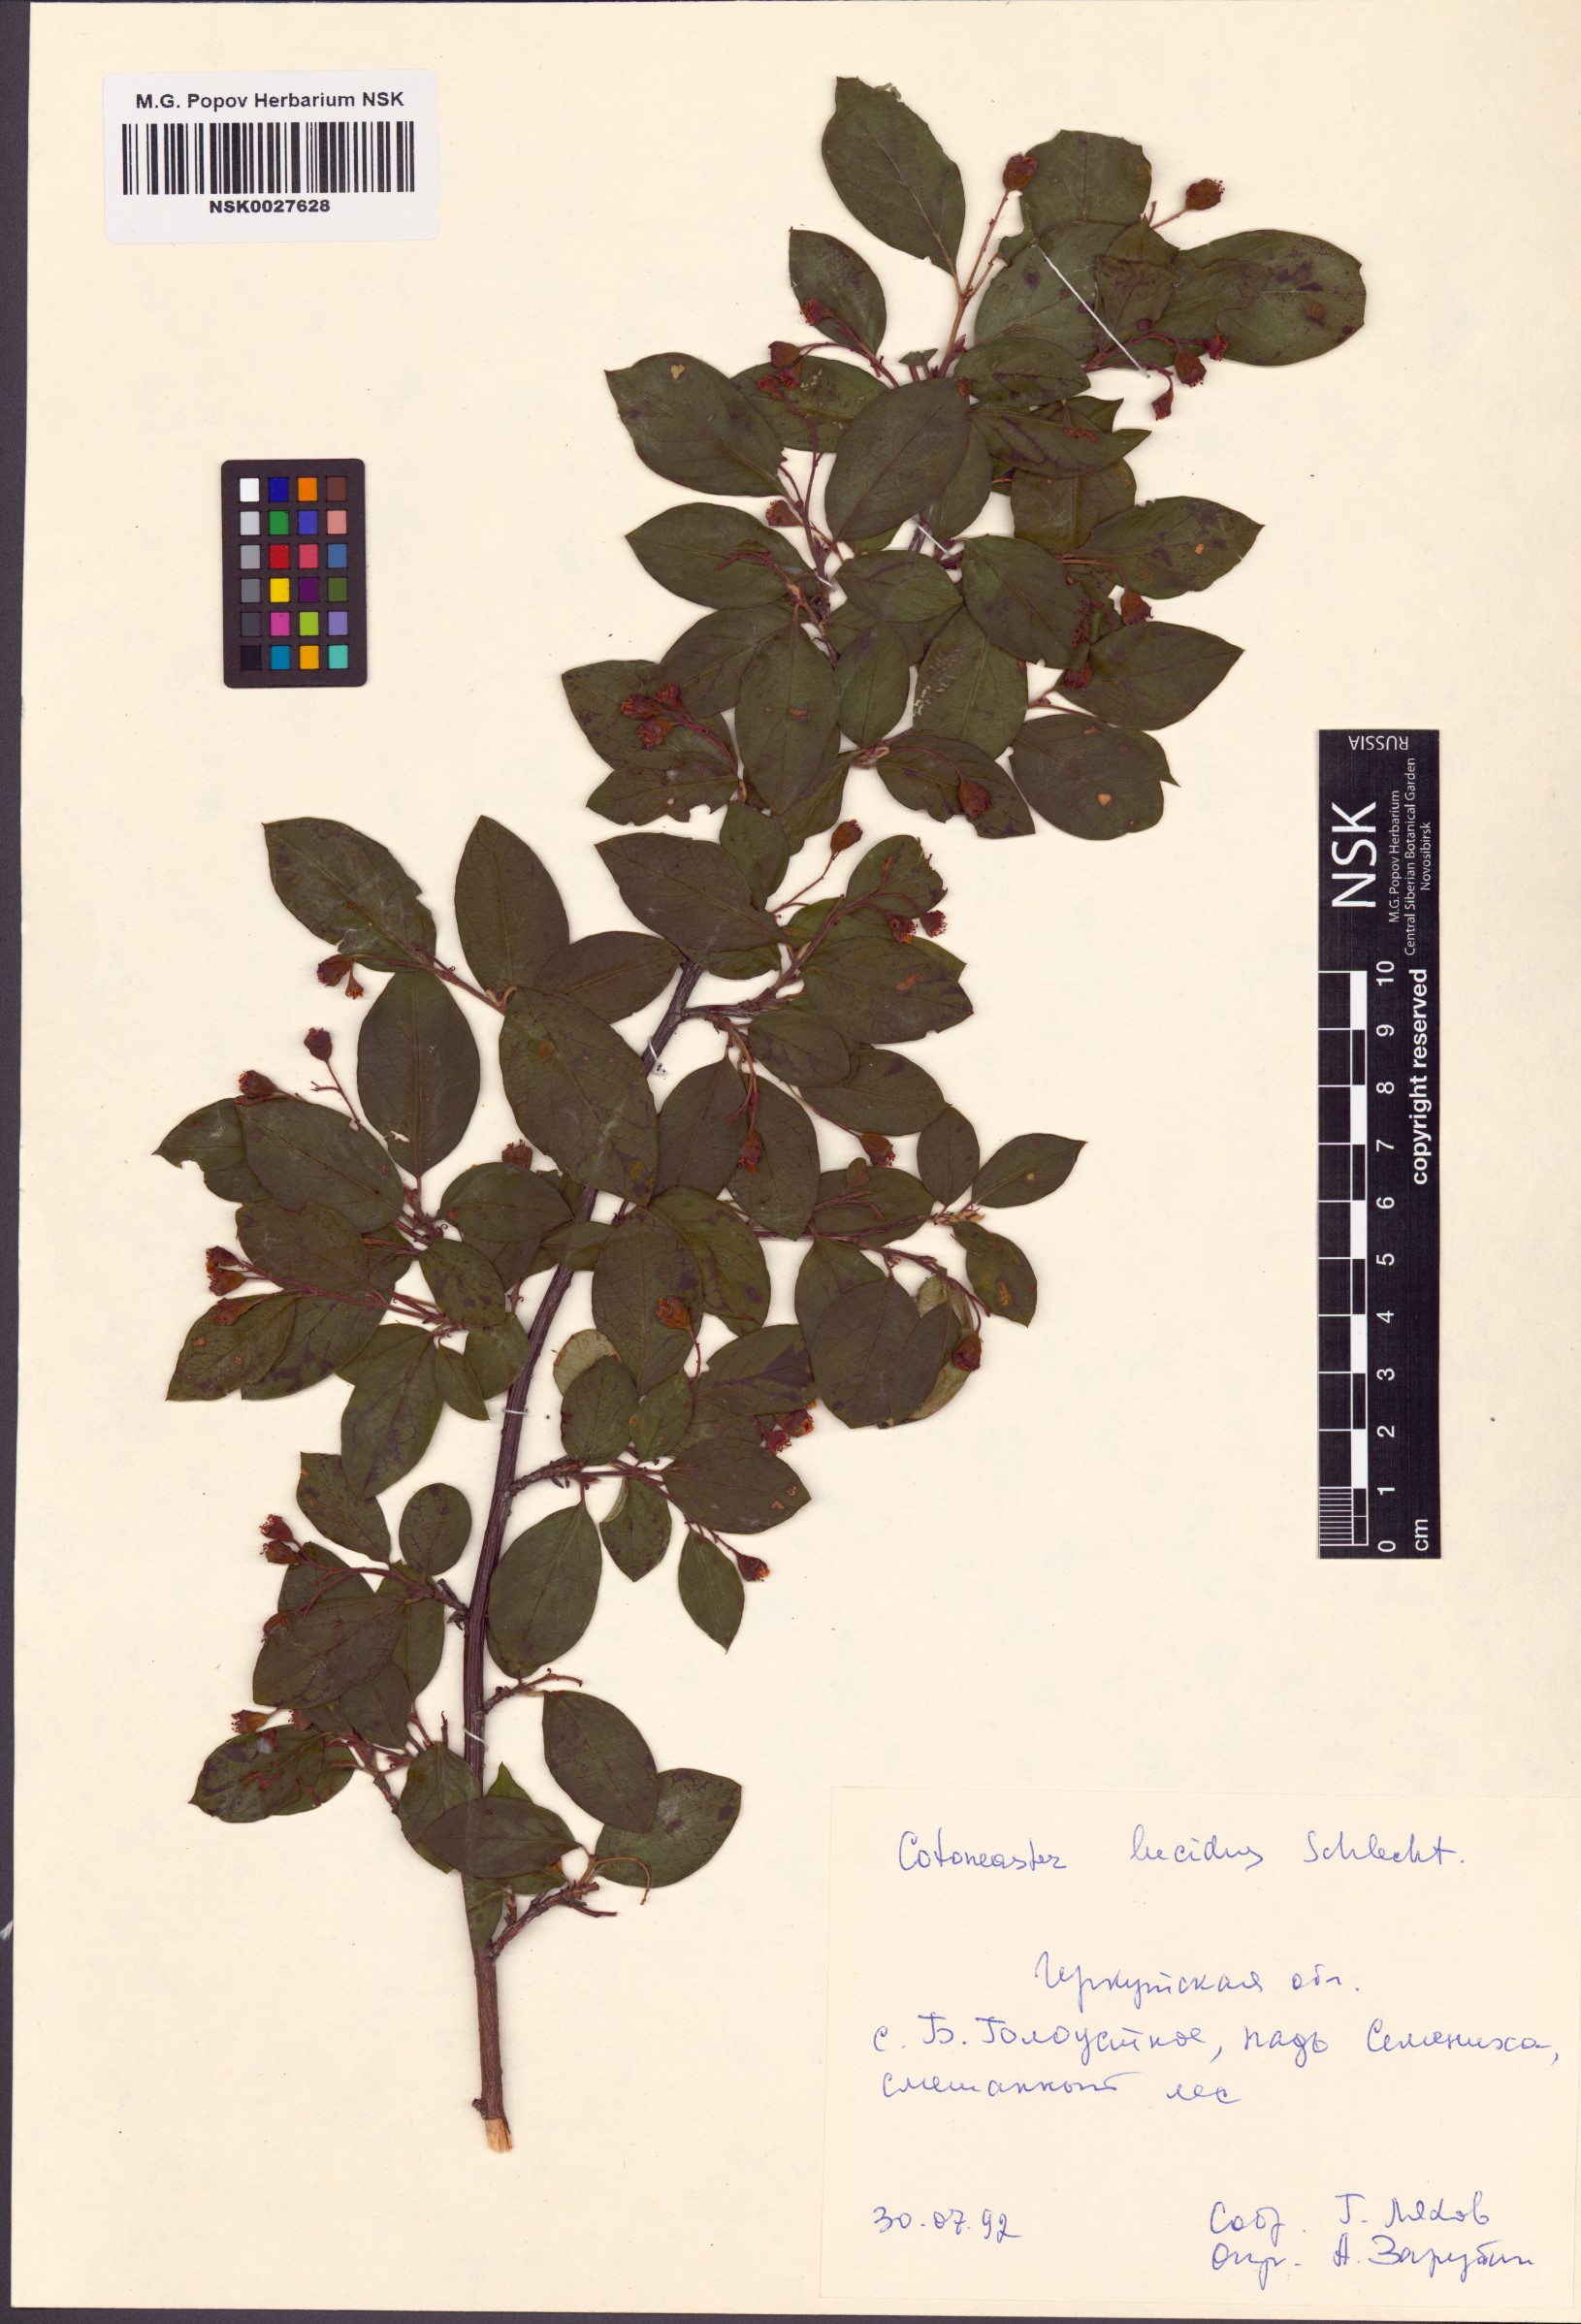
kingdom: Plantae
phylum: Tracheophyta
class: Magnoliopsida
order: Rosales
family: Rosaceae
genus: Cotoneaster
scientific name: Cotoneaster acutifolius
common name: Peking cotoneaster
